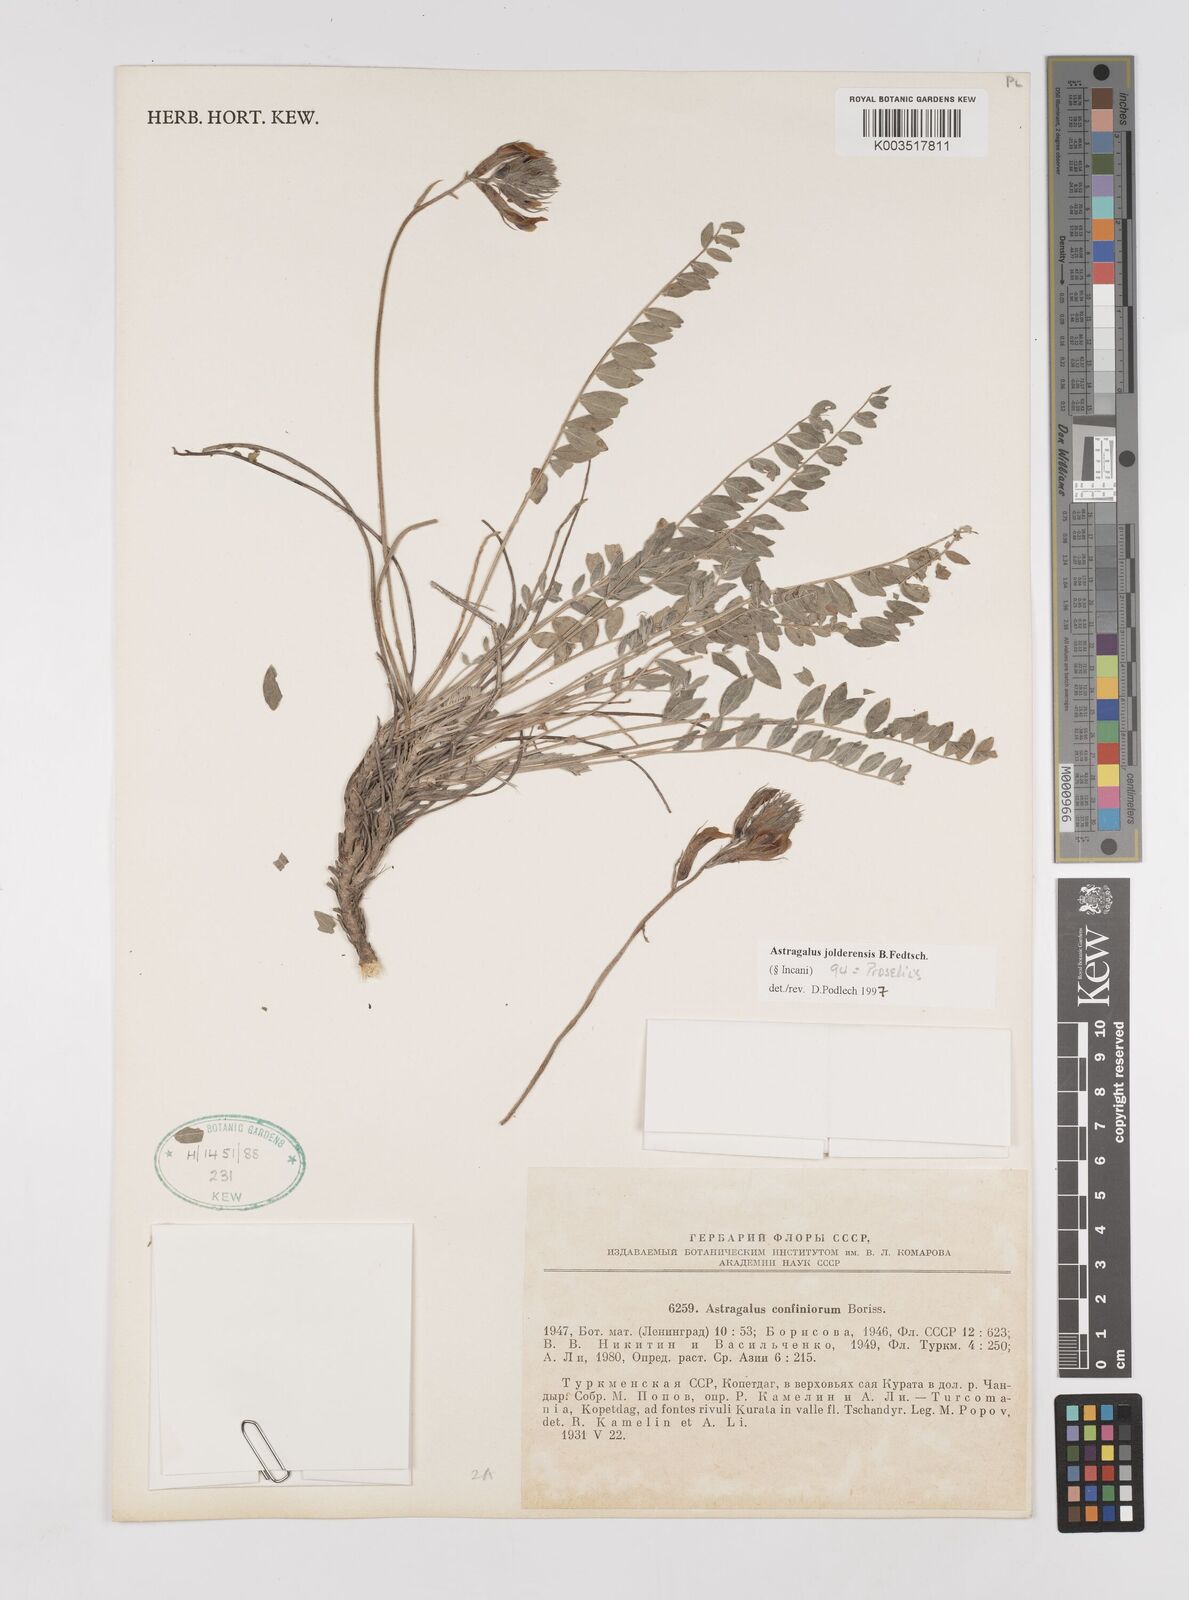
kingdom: Plantae
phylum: Tracheophyta
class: Magnoliopsida
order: Fabales
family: Fabaceae
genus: Astragalus
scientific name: Astragalus jolderensis
